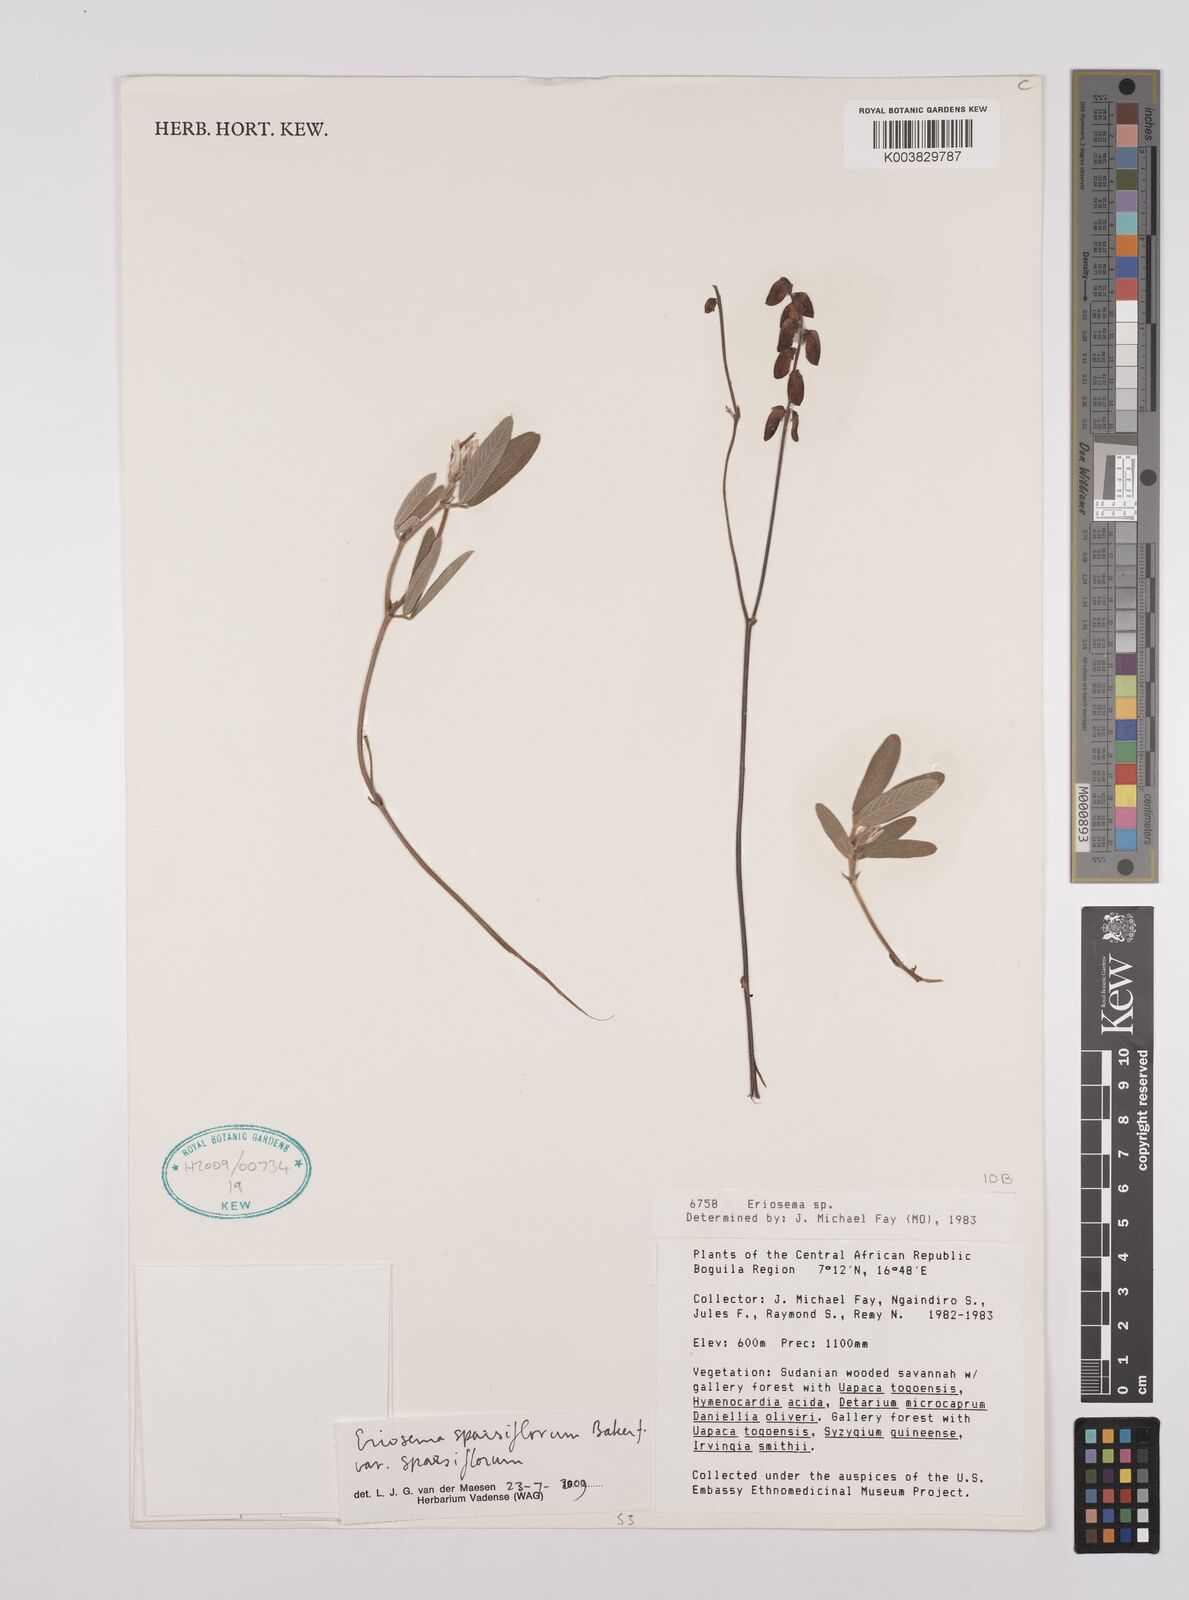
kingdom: Plantae
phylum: Tracheophyta
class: Magnoliopsida
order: Fabales
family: Fabaceae
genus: Eriosema
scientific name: Eriosema sparsiflorum
